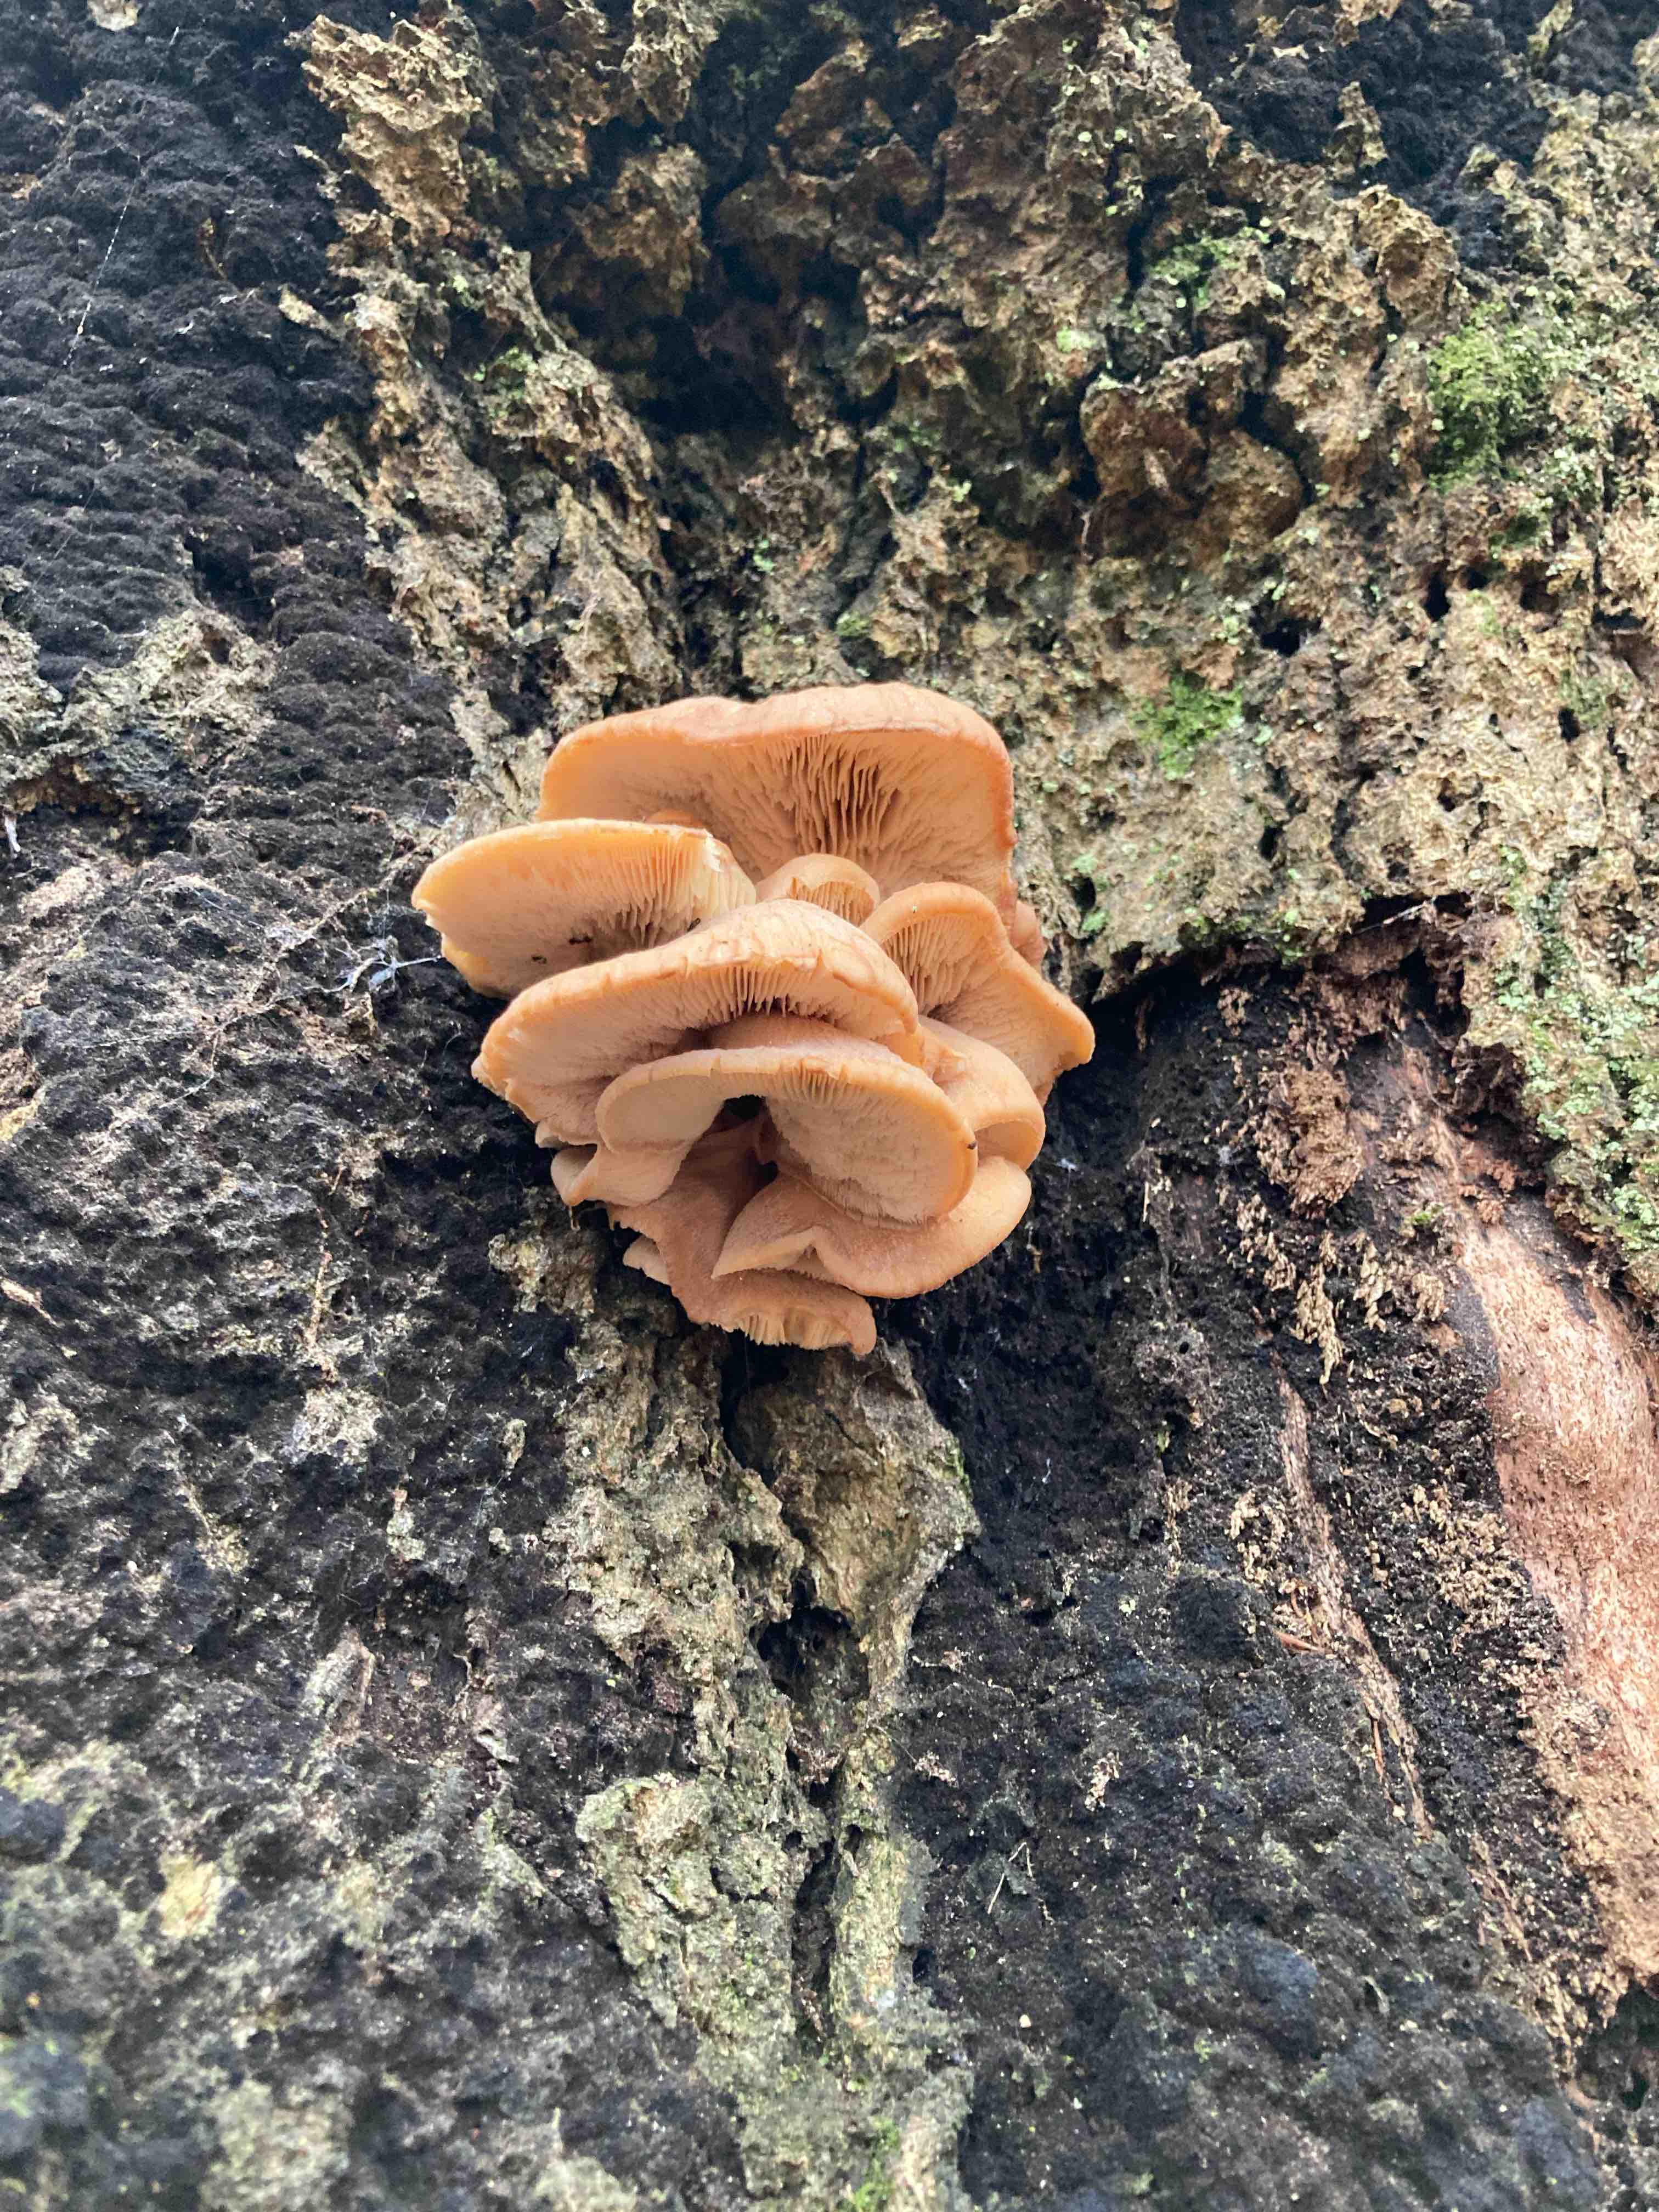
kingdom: Fungi
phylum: Basidiomycota
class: Agaricomycetes
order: Agaricales
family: Physalacriaceae
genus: Flammulina
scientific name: Flammulina velutipes
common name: gul fløjlsfod
